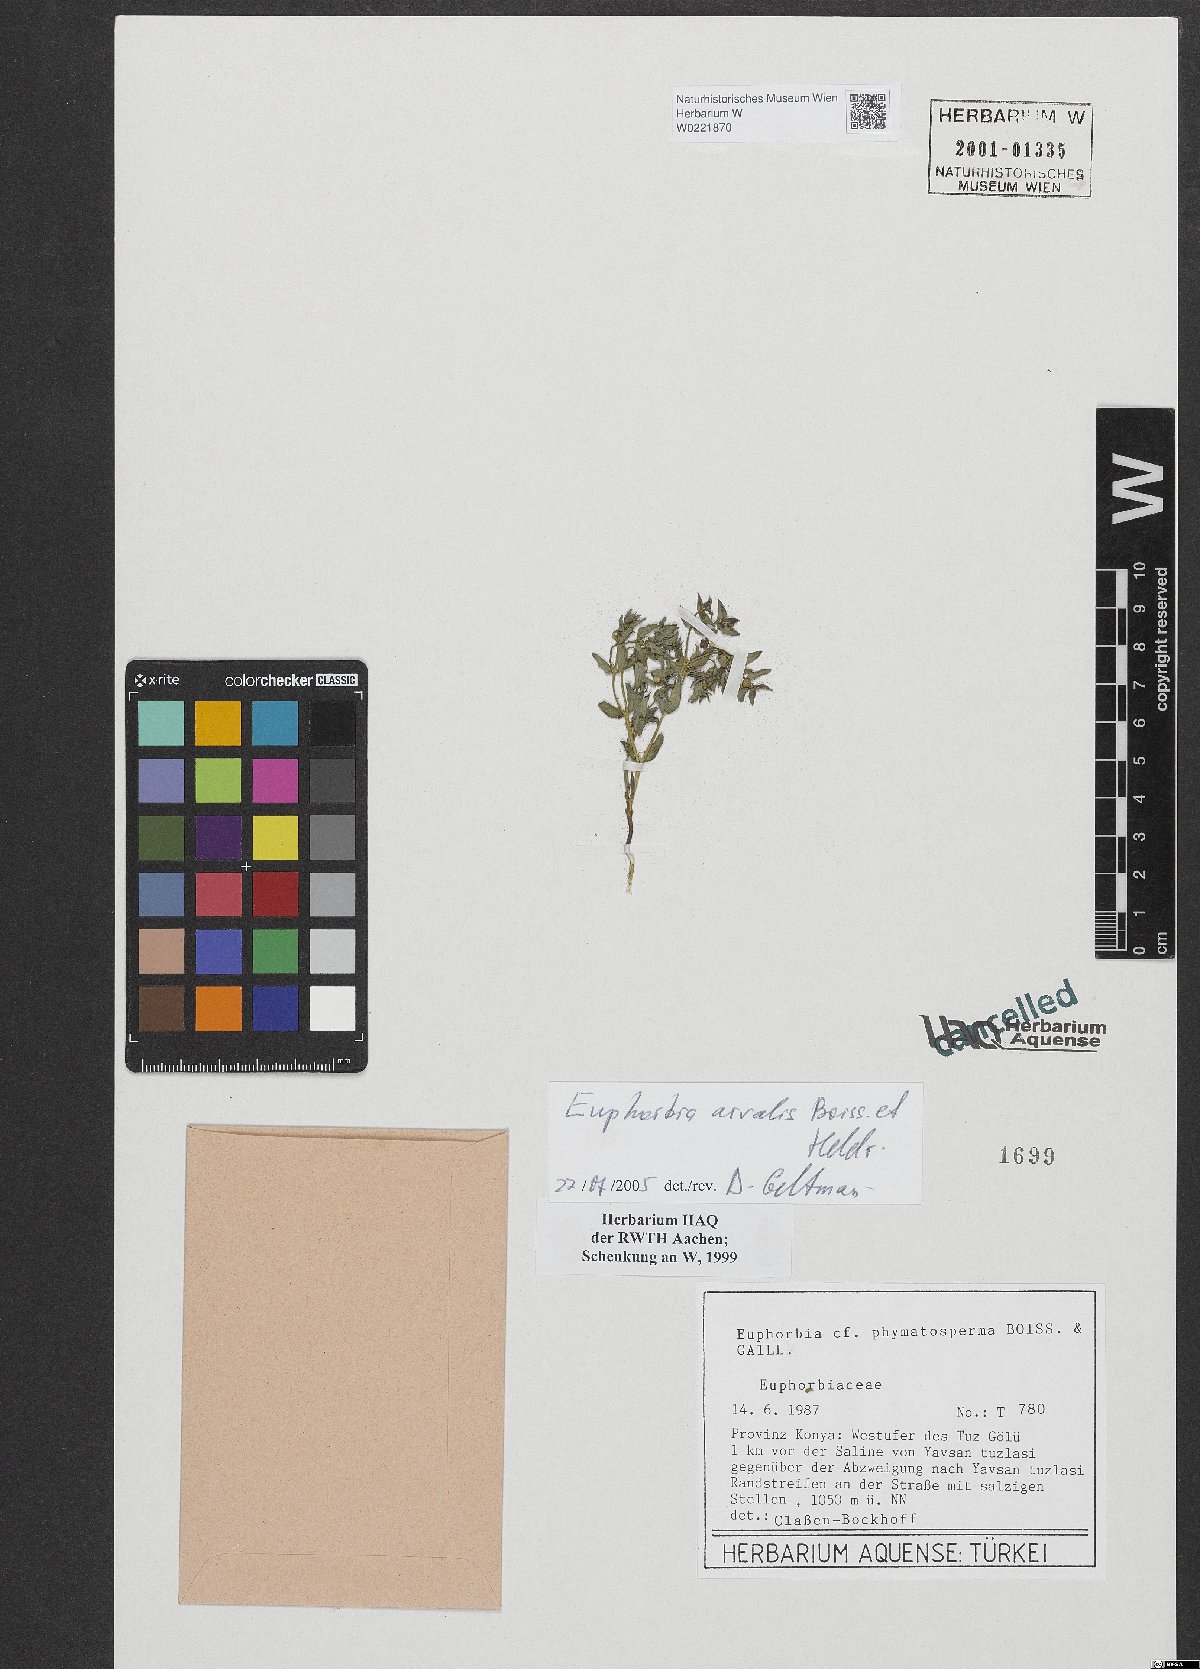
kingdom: Plantae
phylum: Tracheophyta
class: Magnoliopsida
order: Malpighiales
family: Euphorbiaceae
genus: Euphorbia
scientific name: Euphorbia arvalis
